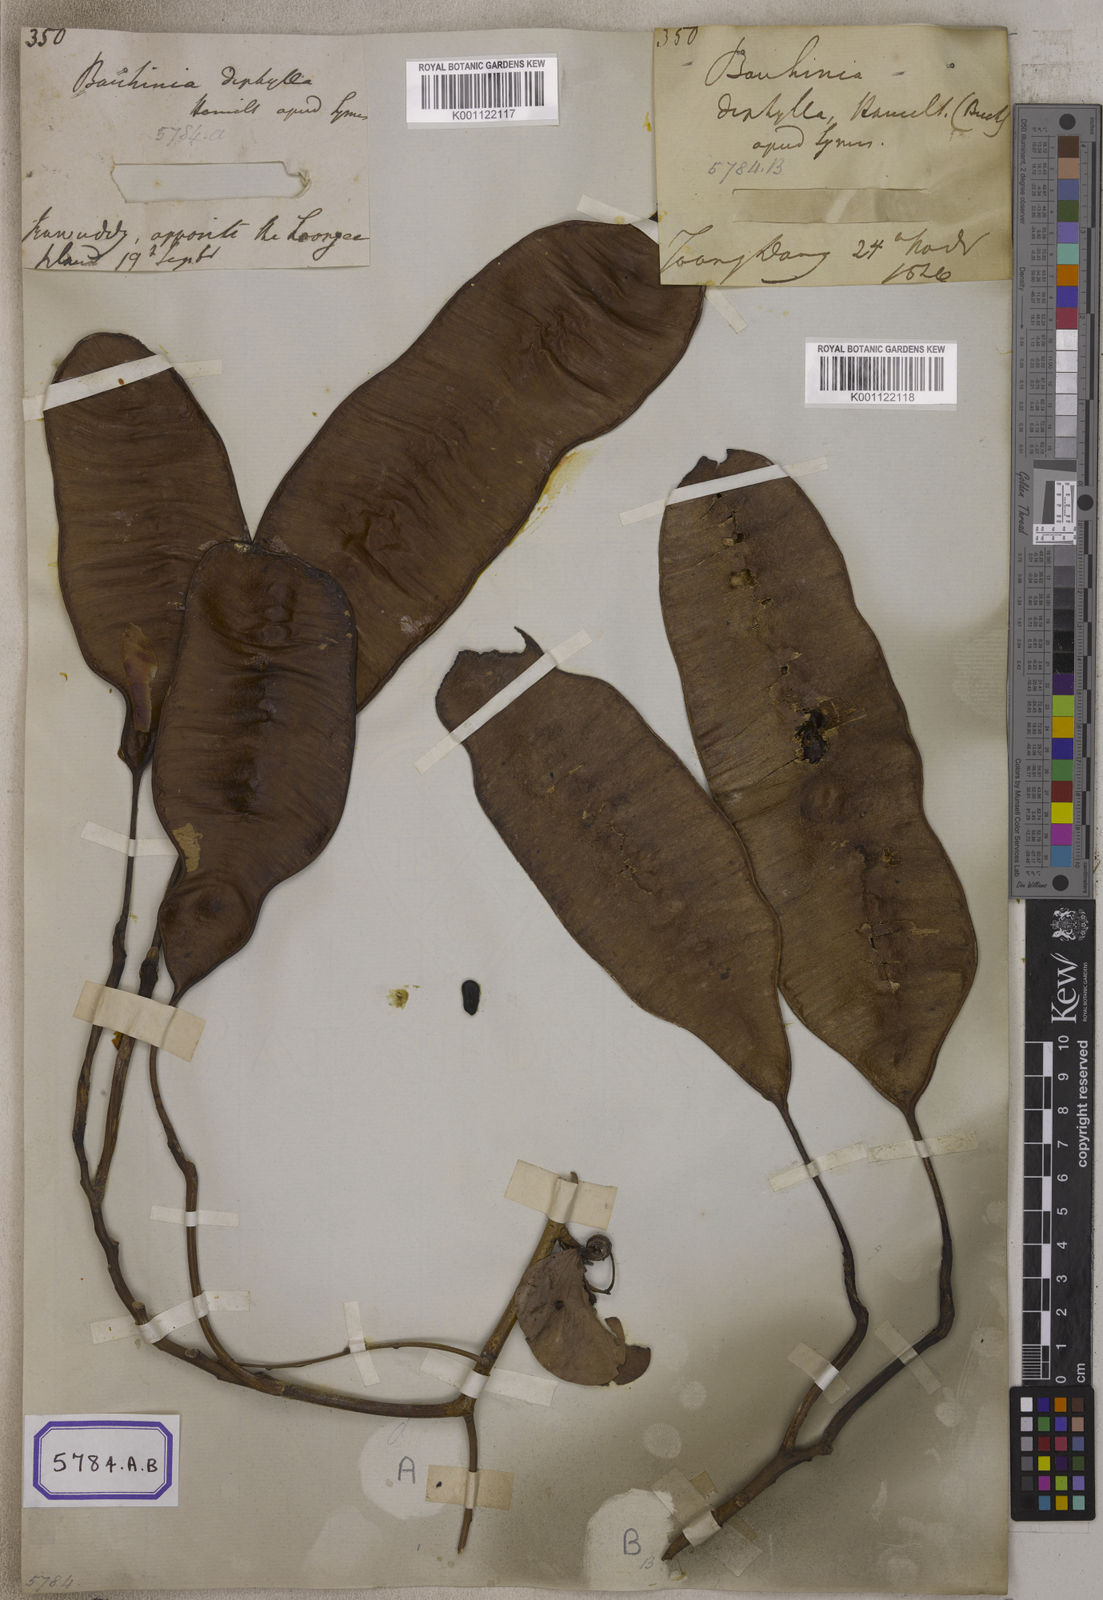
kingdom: Plantae
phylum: Tracheophyta
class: Magnoliopsida
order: Fabales
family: Fabaceae
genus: Bauhinia
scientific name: Bauhinia
